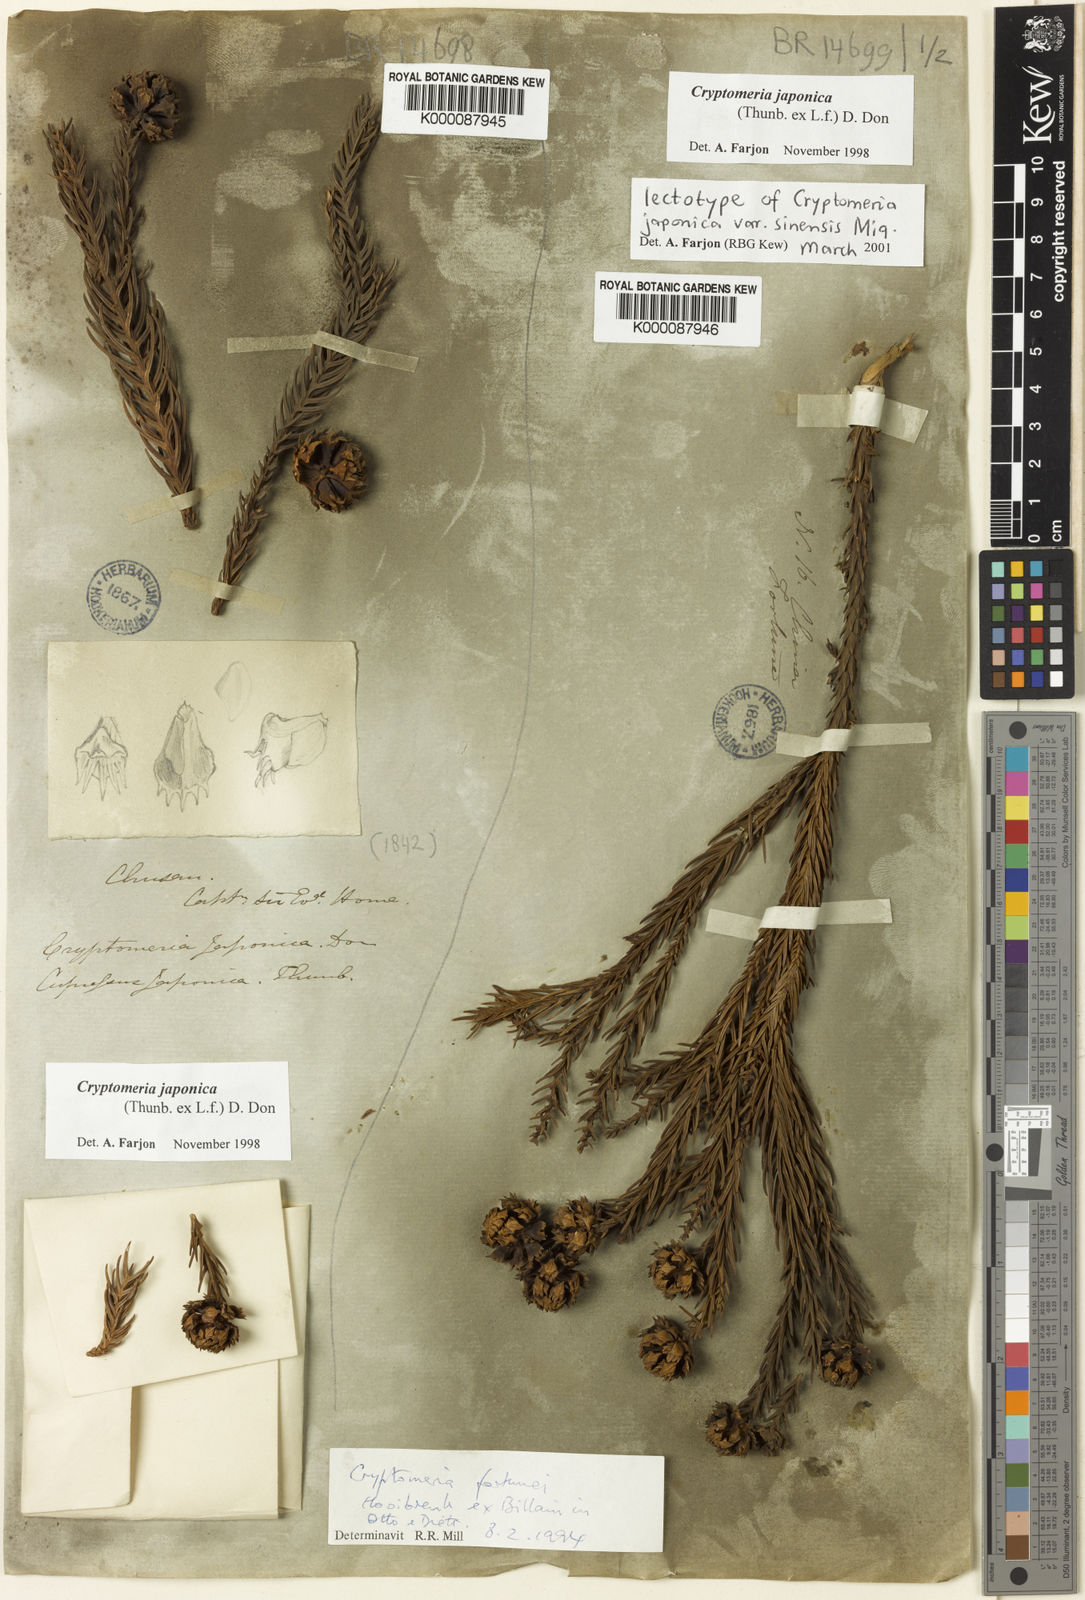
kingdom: Plantae
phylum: Tracheophyta
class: Pinopsida
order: Pinales
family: Cupressaceae
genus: Cryptomeria
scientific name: Cryptomeria japonica
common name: Japanese cedar
